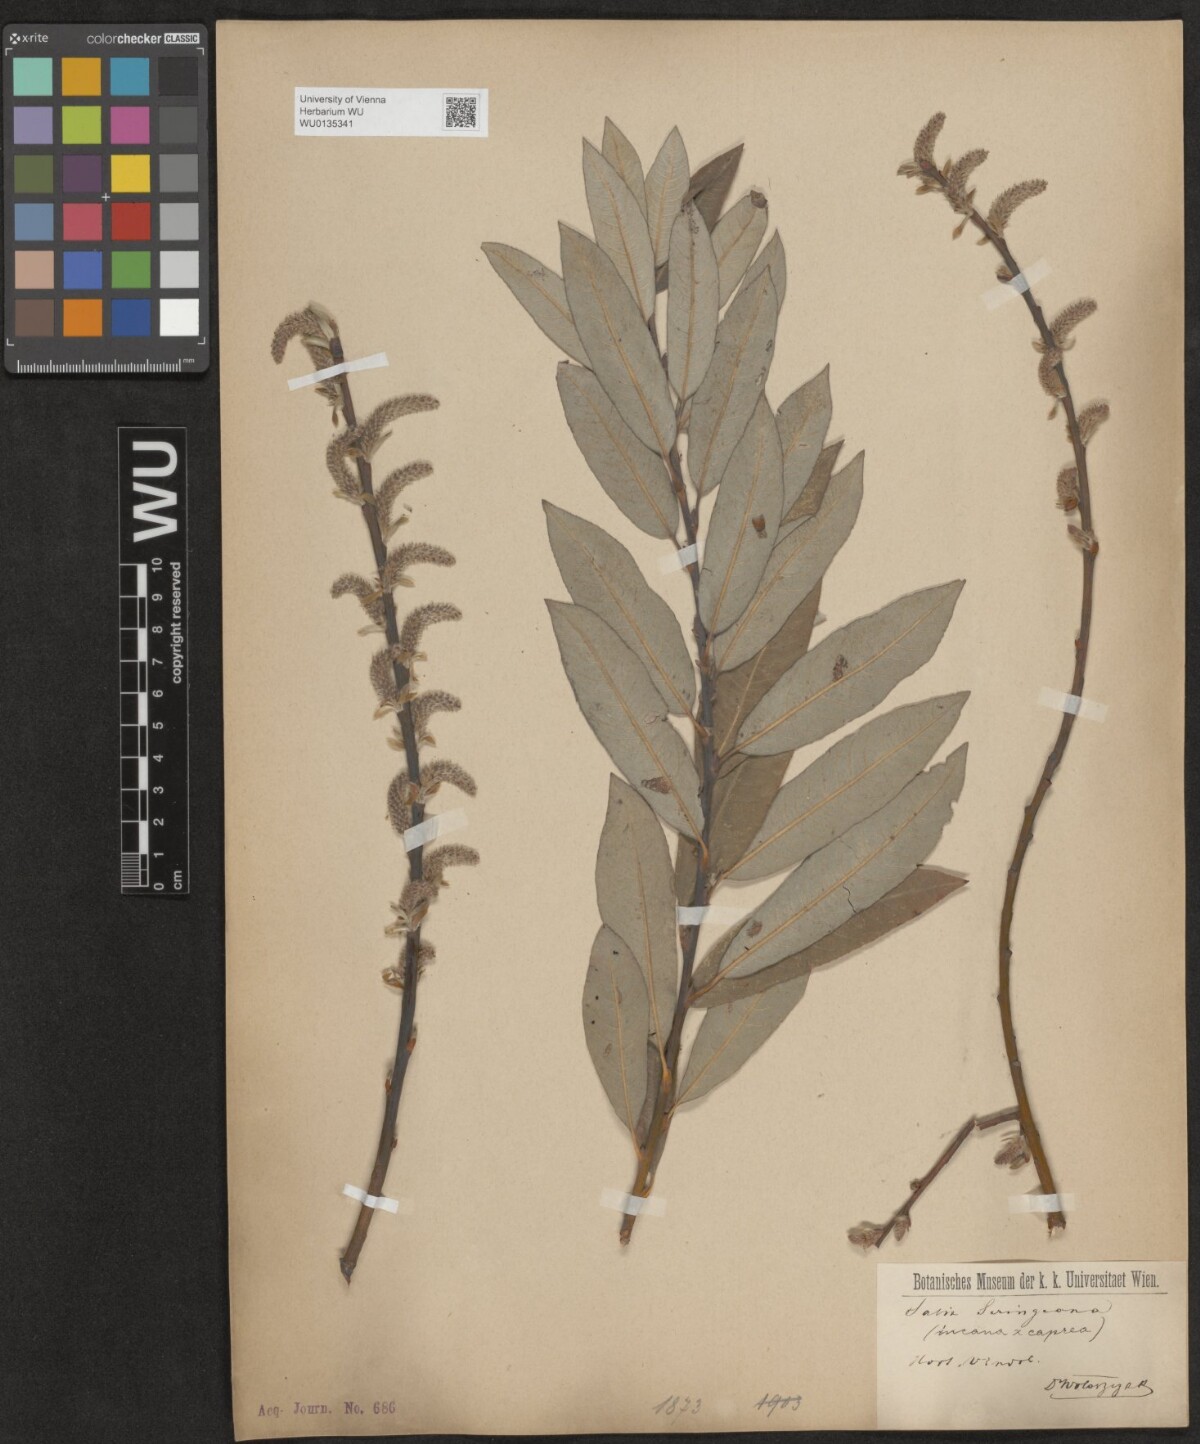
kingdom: Plantae
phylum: Tracheophyta
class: Magnoliopsida
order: Malpighiales
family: Salicaceae
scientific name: Salicaceae
